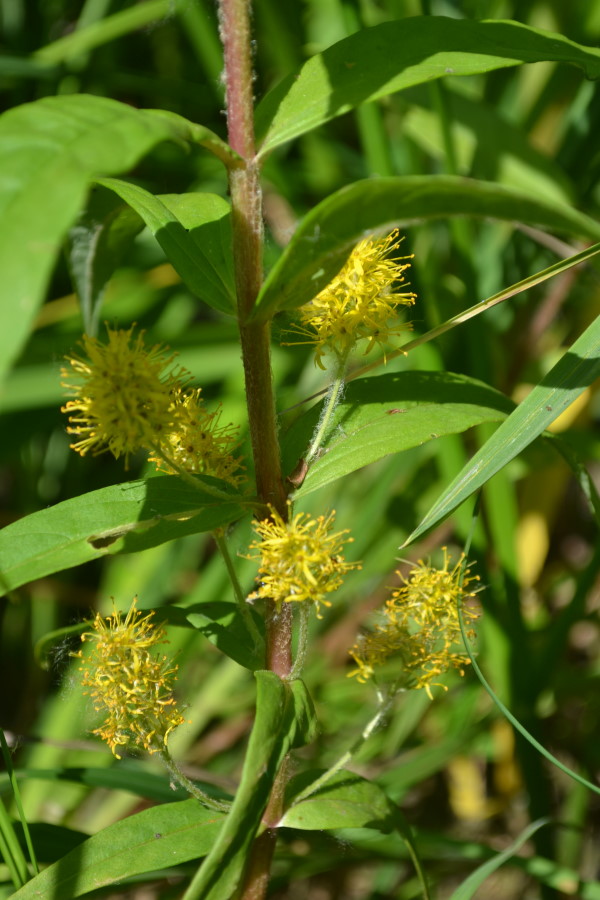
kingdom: Plantae
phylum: Tracheophyta
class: Magnoliopsida
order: Ericales
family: Primulaceae
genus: Lysimachia
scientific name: Lysimachia thyrsiflora
